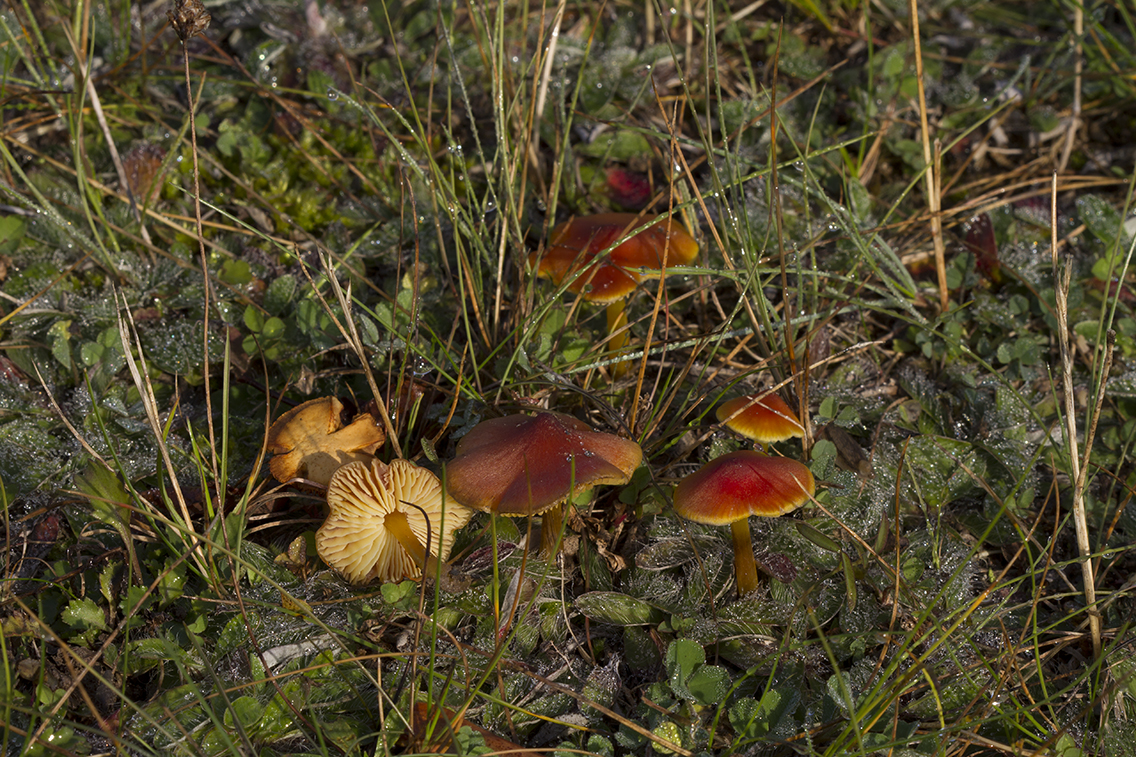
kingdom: Fungi
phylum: Basidiomycota
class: Agaricomycetes
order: Agaricales
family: Hygrophoraceae
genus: Hygrocybe
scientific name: Hygrocybe conica
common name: kegle-vokshat
